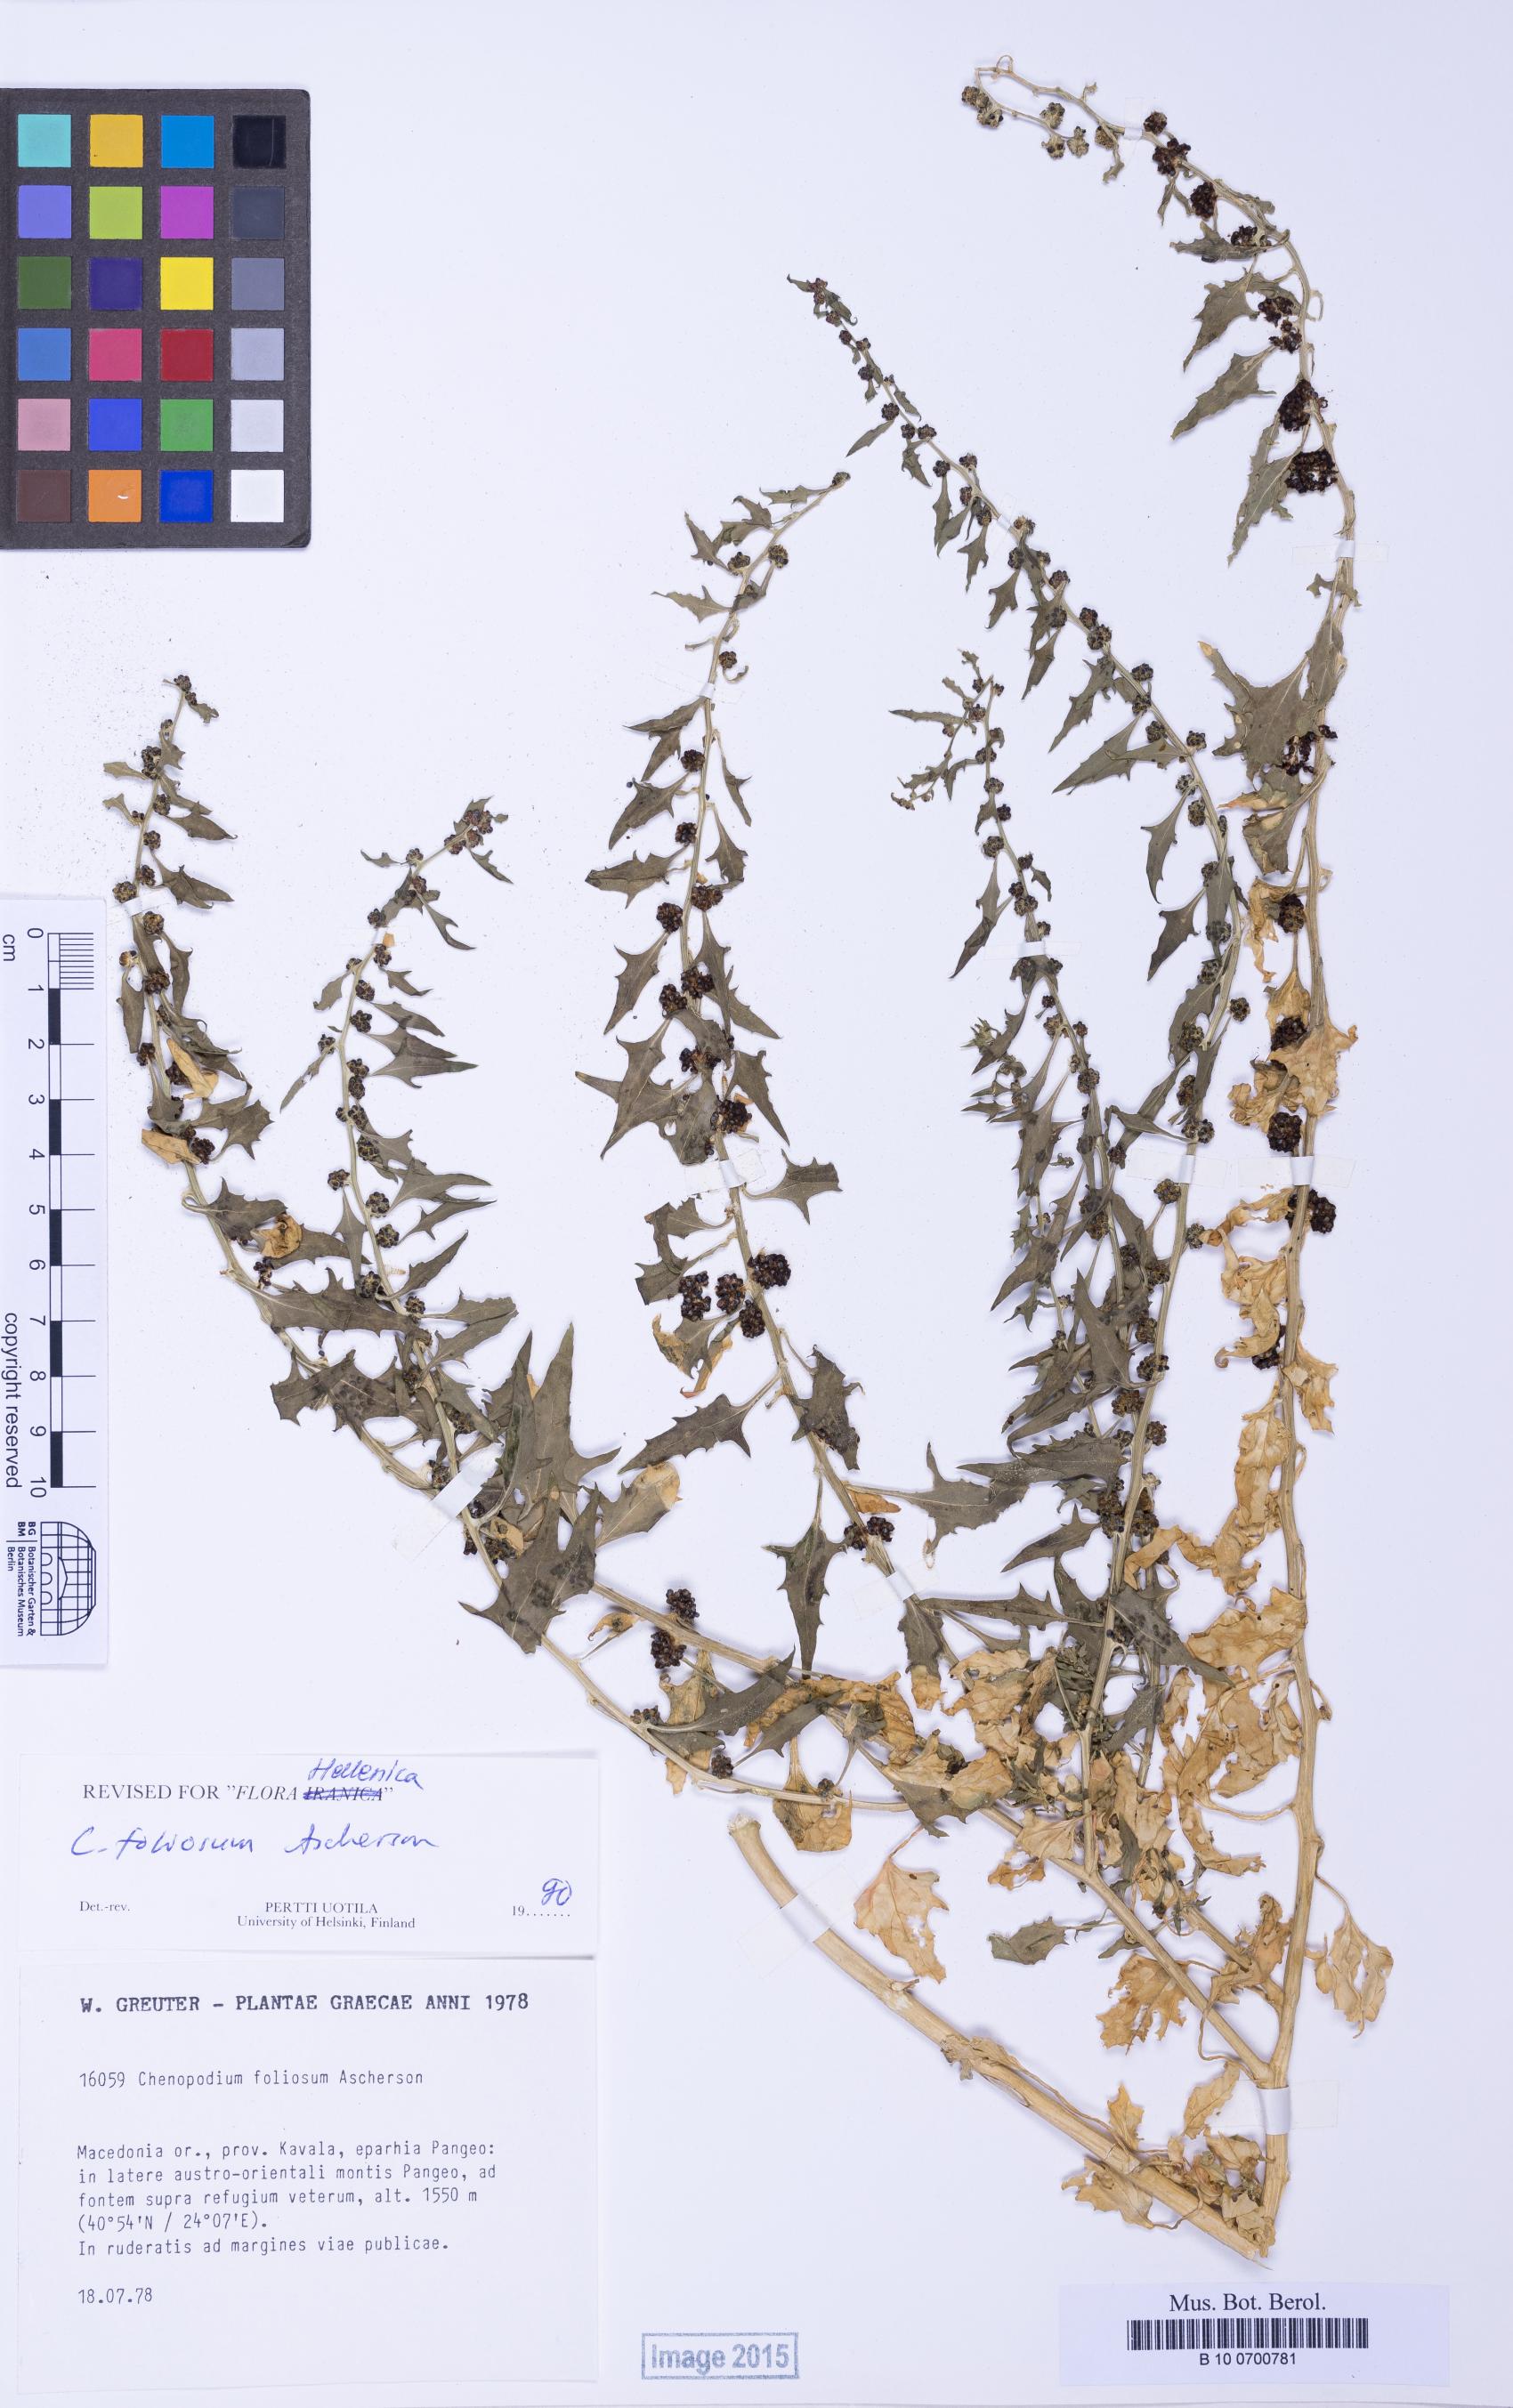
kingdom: Plantae
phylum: Tracheophyta
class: Magnoliopsida
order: Caryophyllales
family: Amaranthaceae
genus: Blitum
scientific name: Blitum virgatum
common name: Strawberry goosefoot
